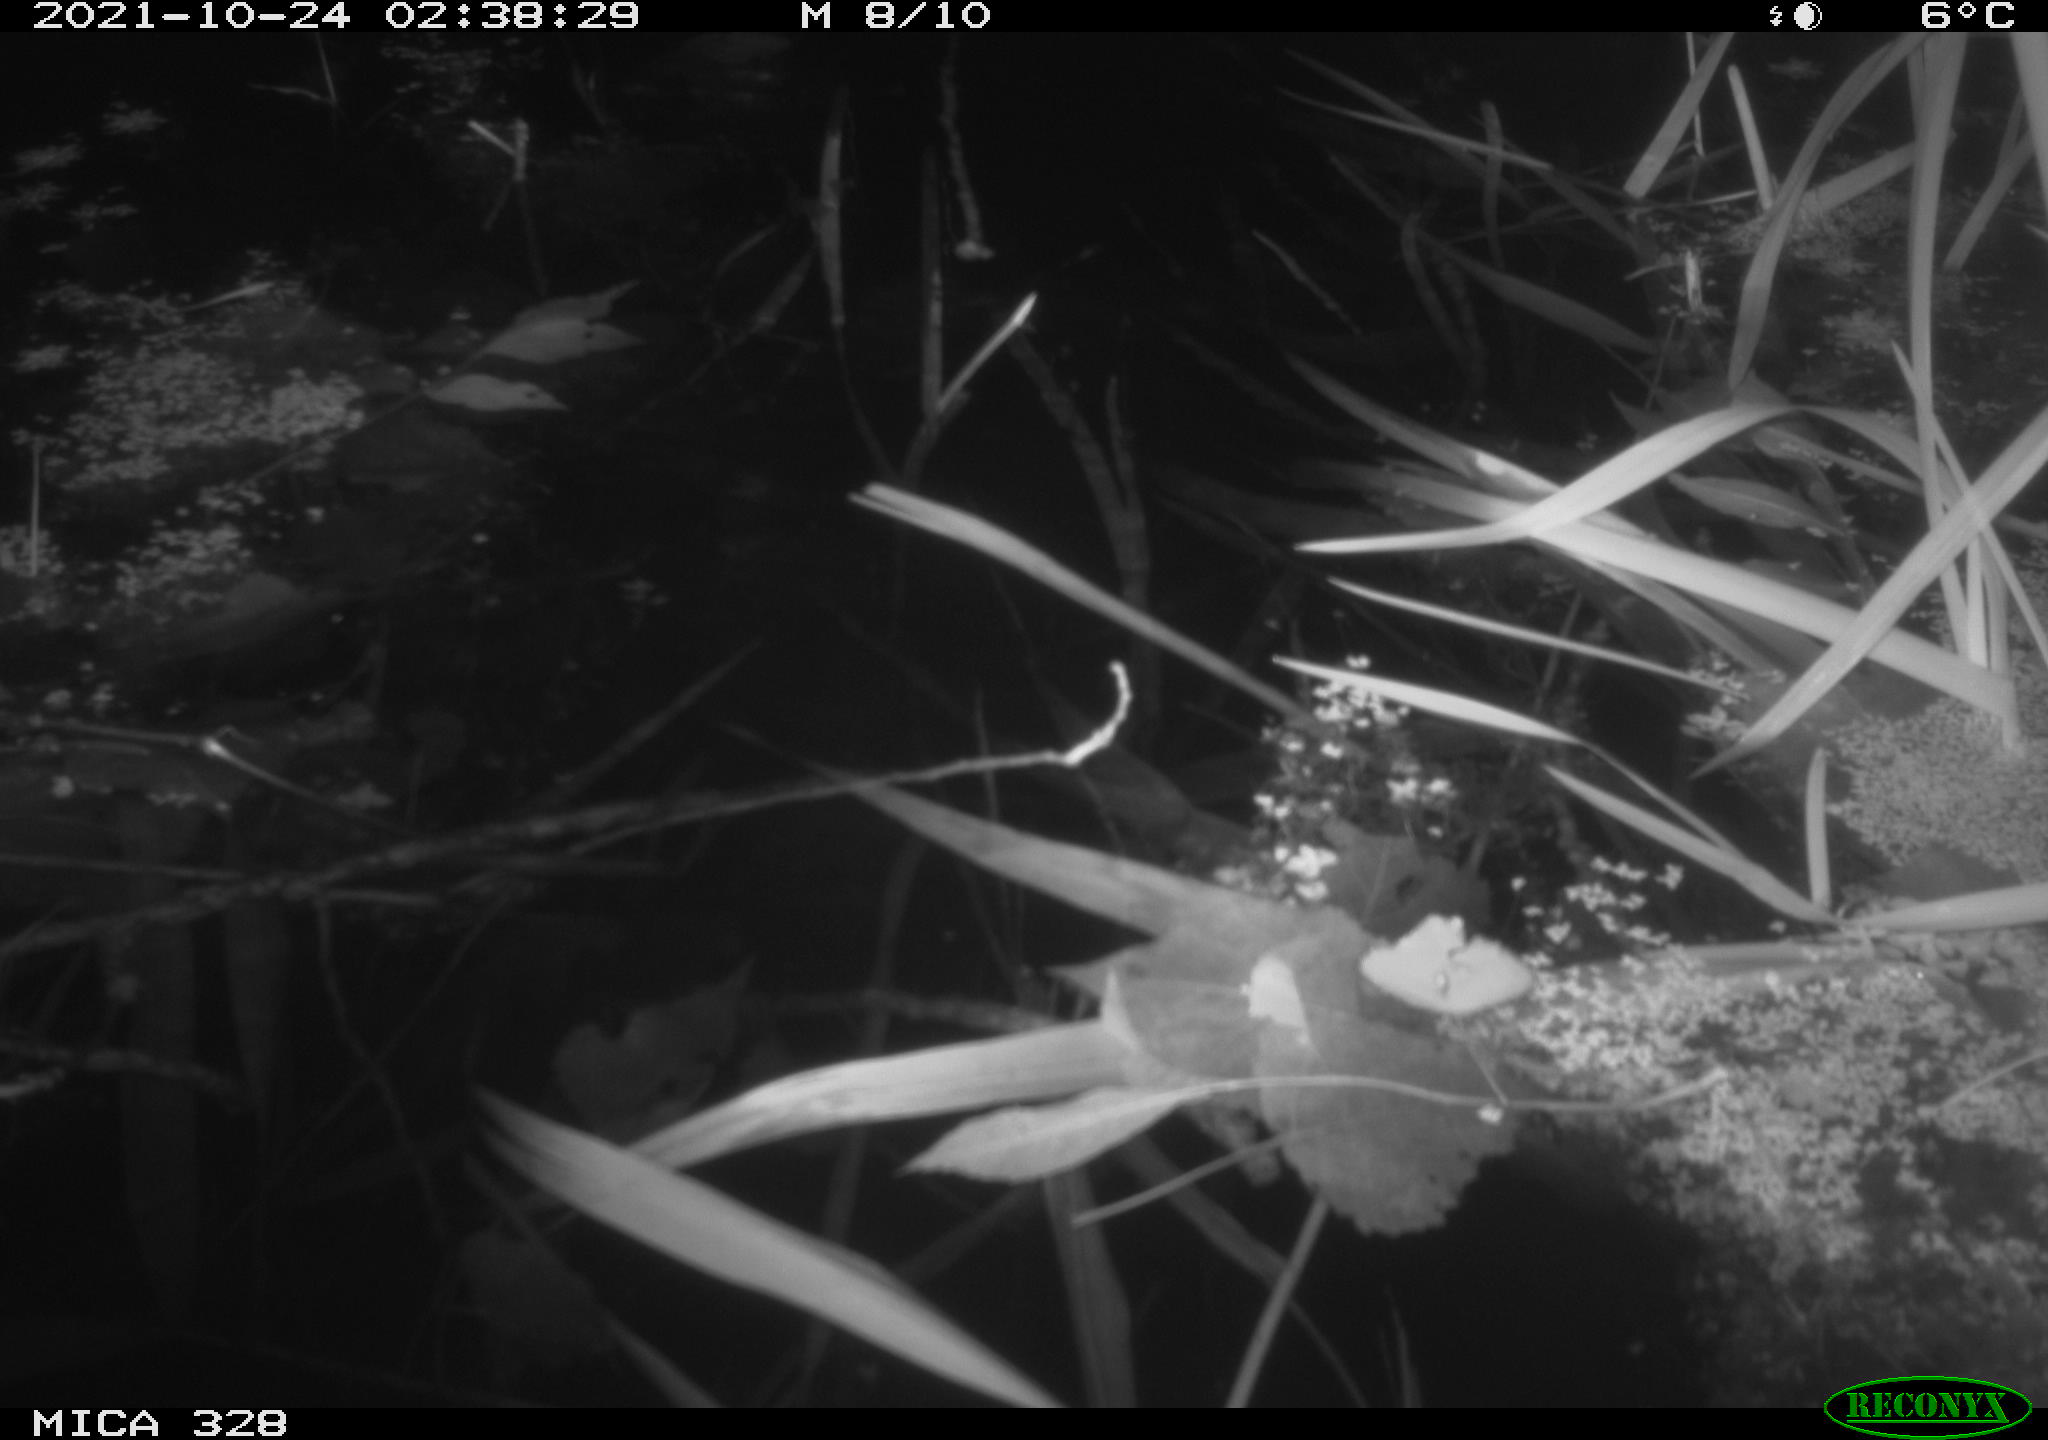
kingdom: Animalia
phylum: Chordata
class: Mammalia
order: Rodentia
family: Cricetidae
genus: Ondatra
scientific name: Ondatra zibethicus
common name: Muskrat
